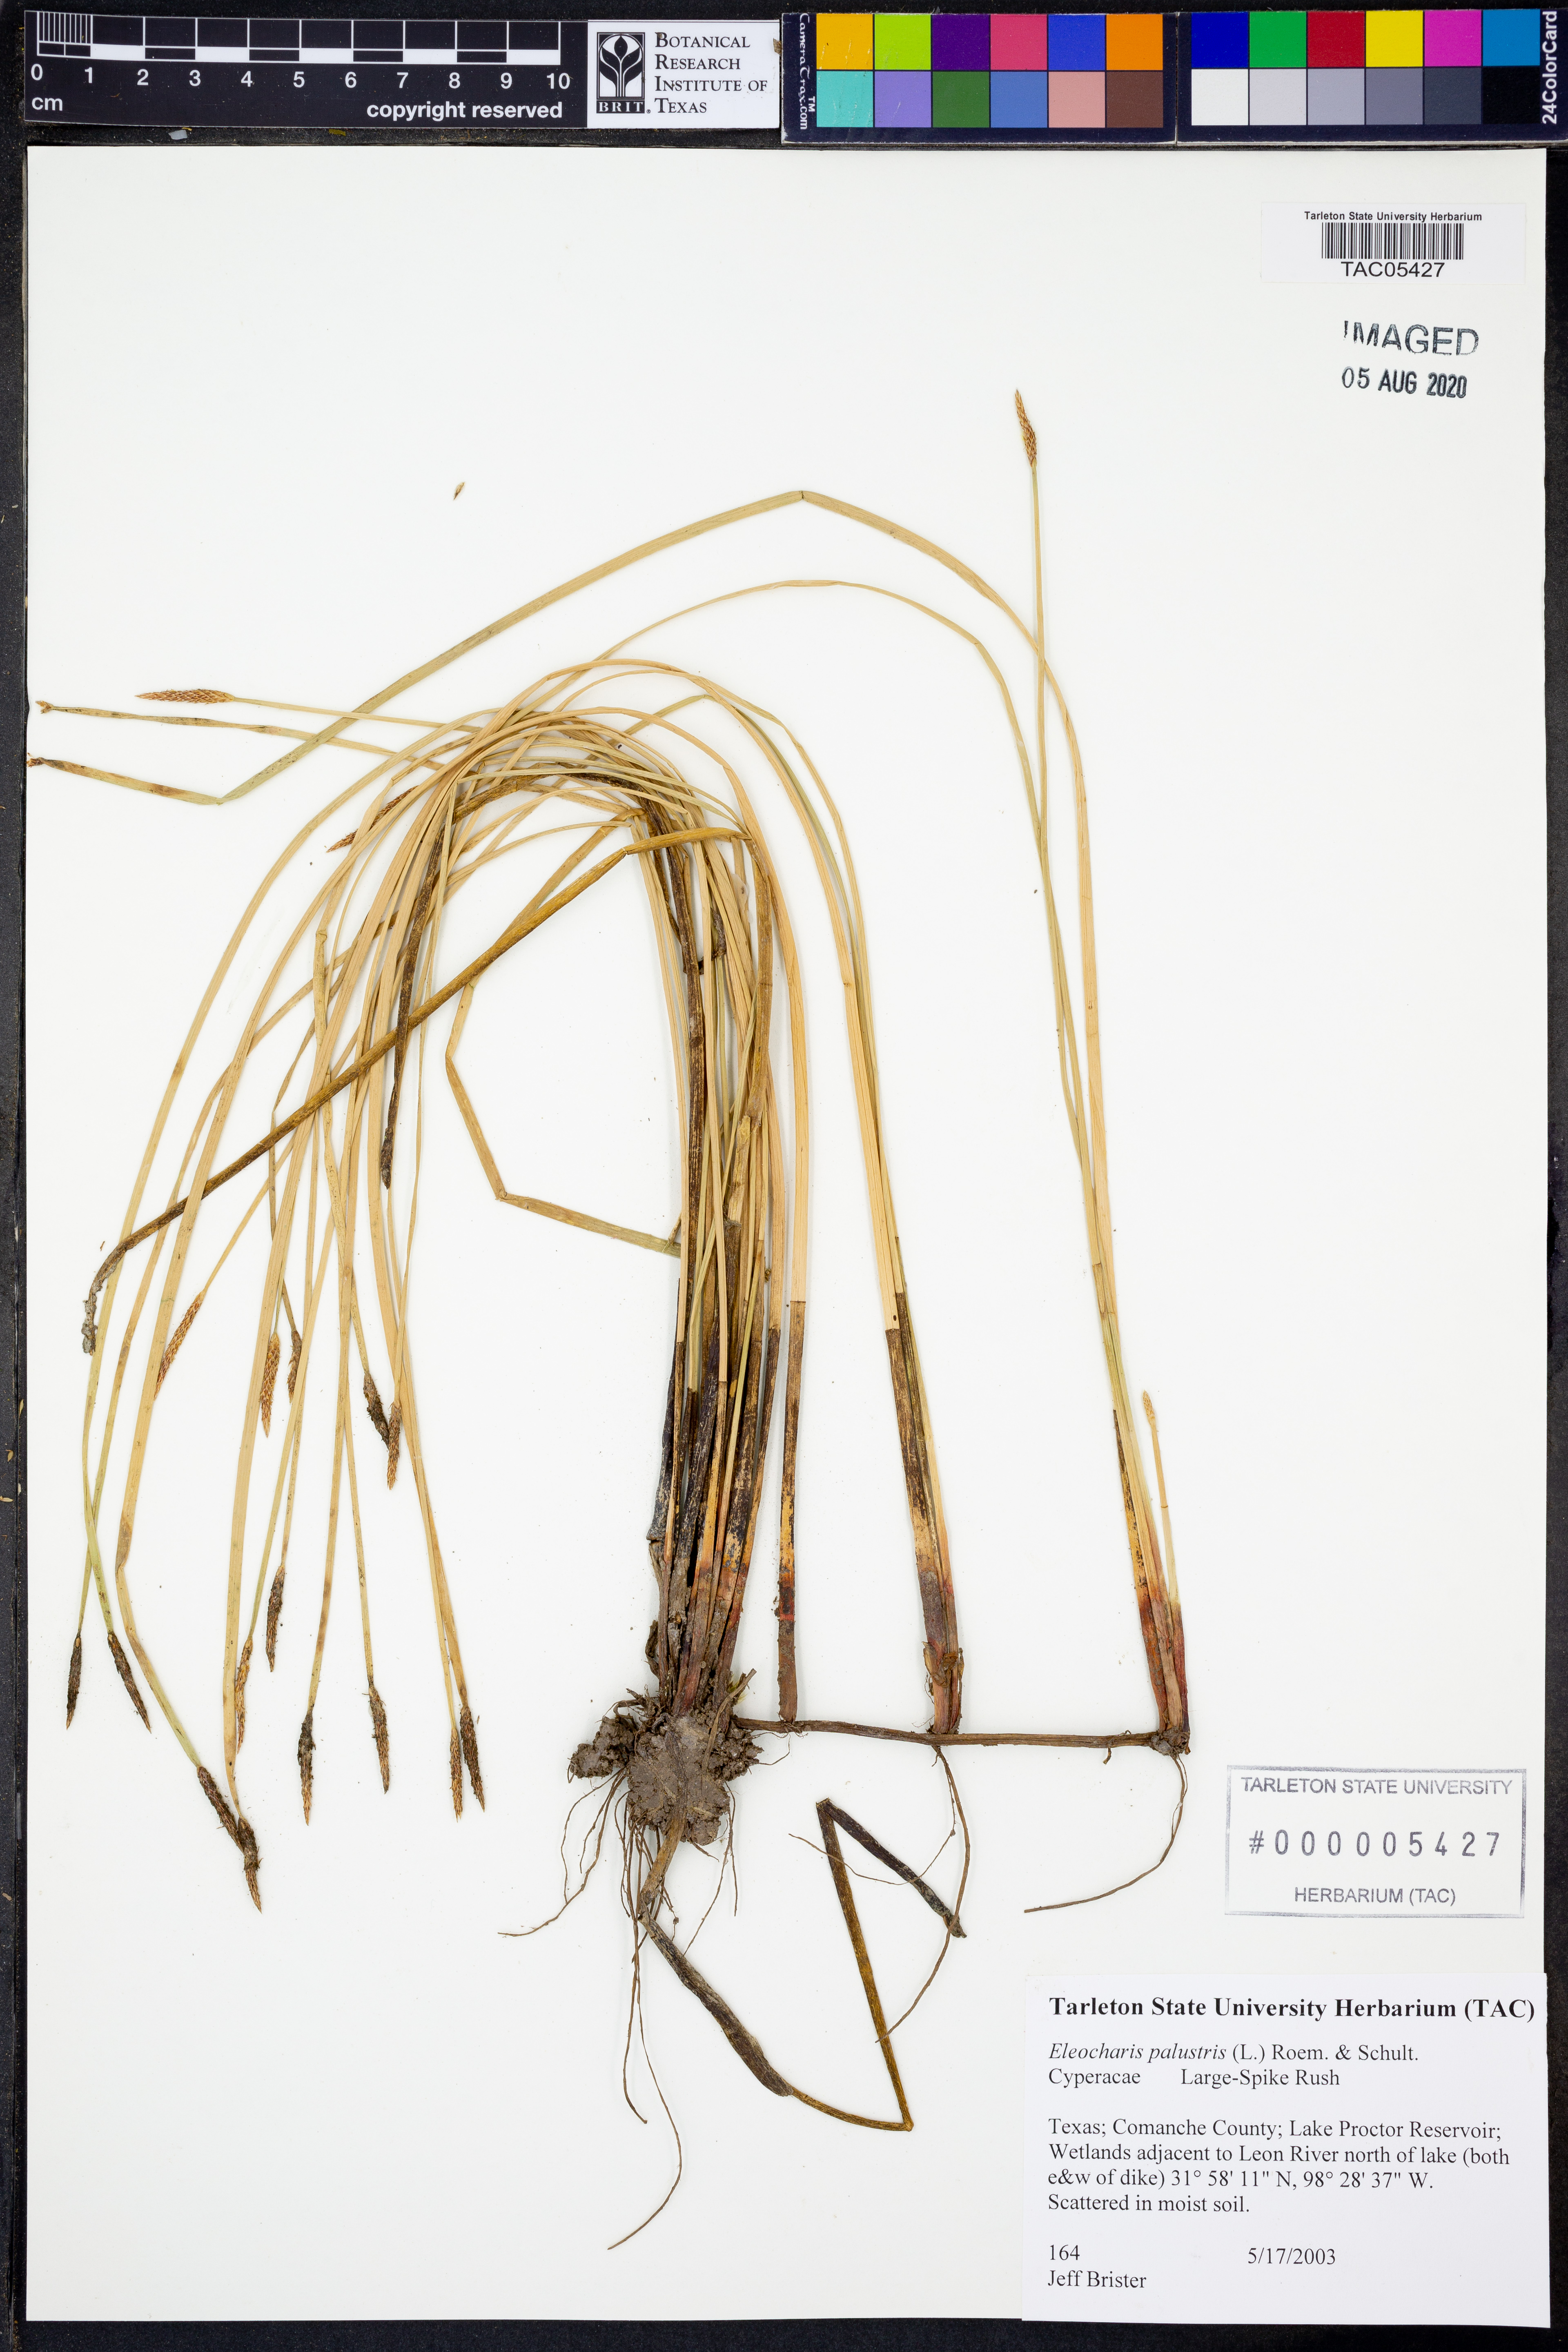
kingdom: Plantae
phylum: Tracheophyta
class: Liliopsida
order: Poales
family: Cyperaceae
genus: Eleocharis
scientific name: Eleocharis palustris
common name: Common spike-rush
